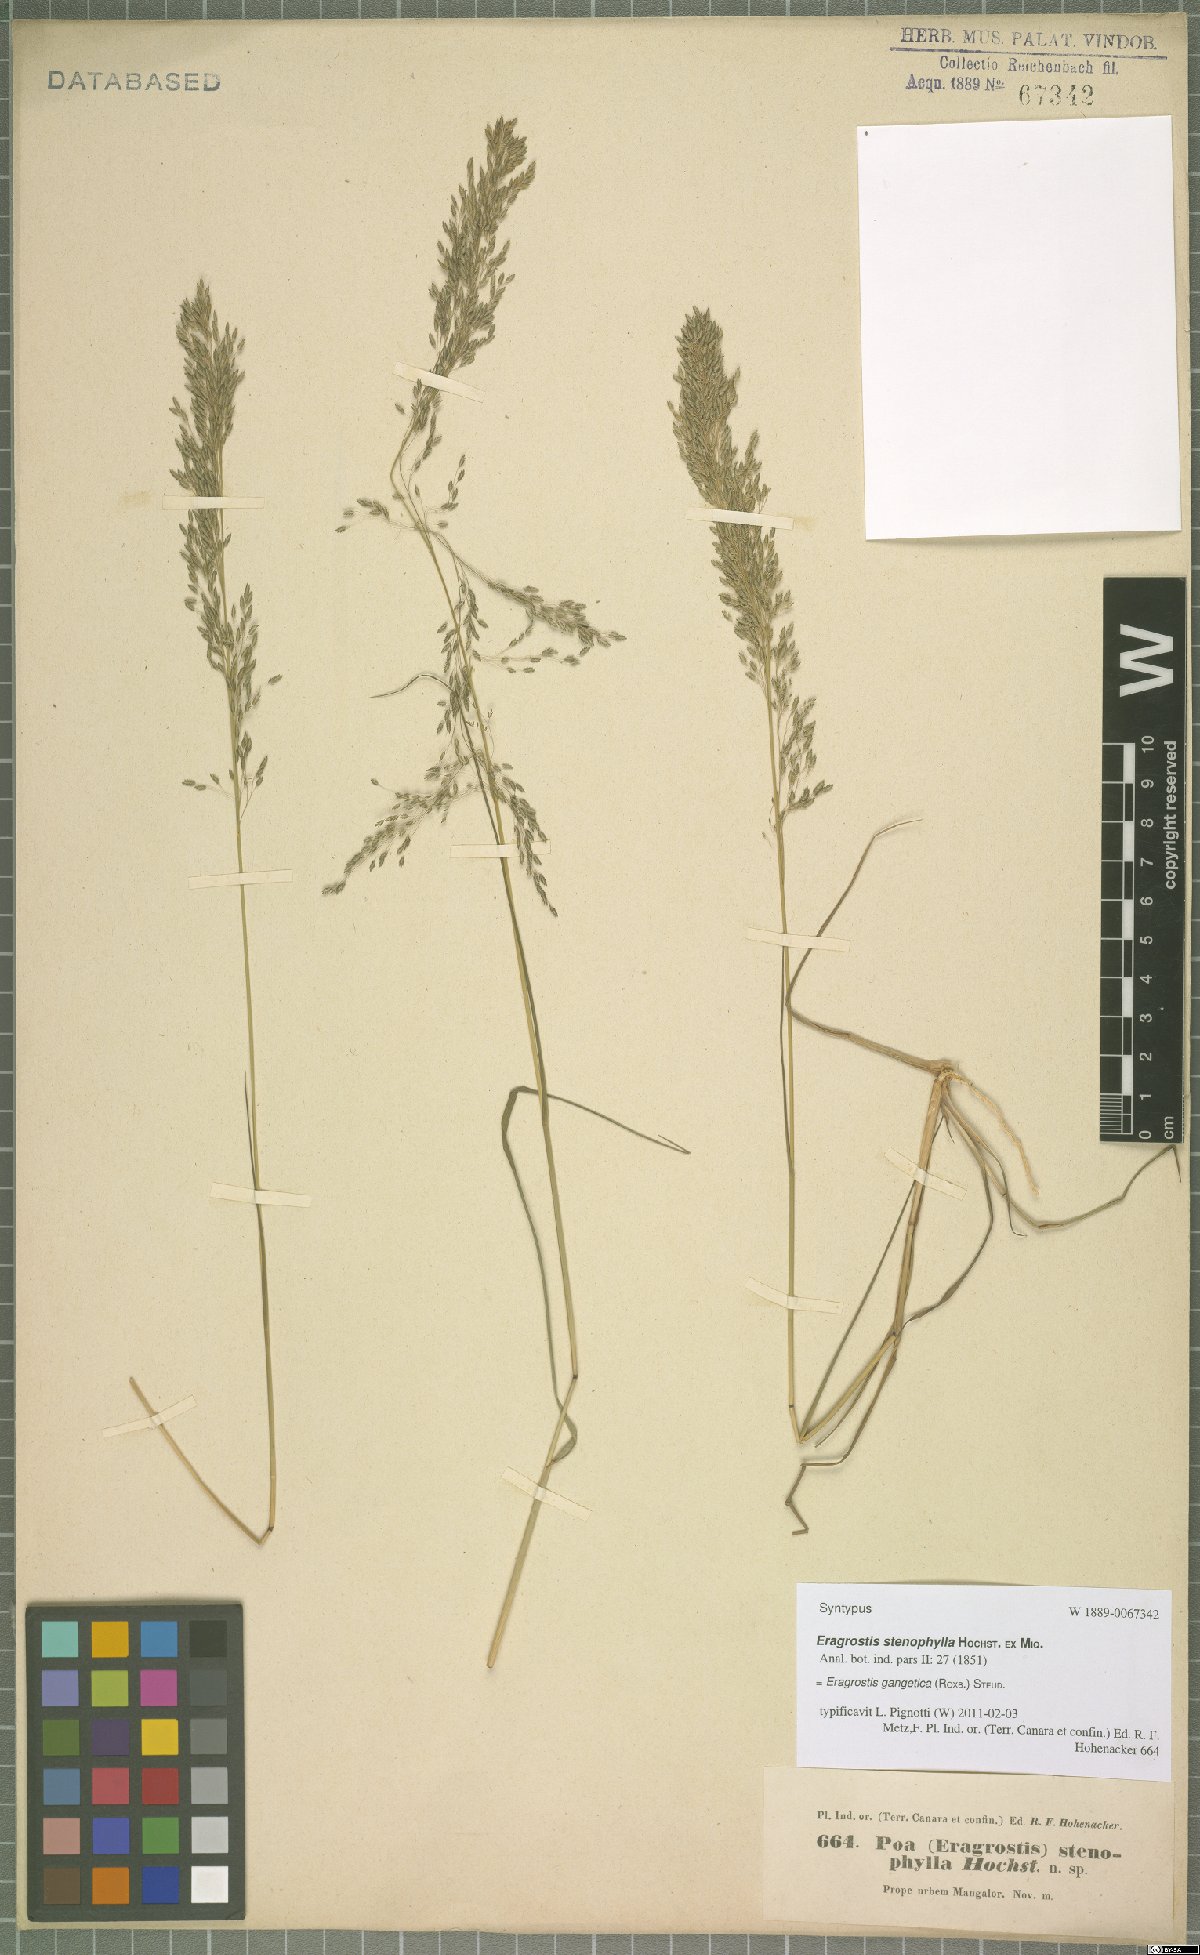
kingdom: Plantae
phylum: Tracheophyta
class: Liliopsida
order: Poales
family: Poaceae
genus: Eragrostis
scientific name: Eragrostis gangetica
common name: Slimflower lovegrass
